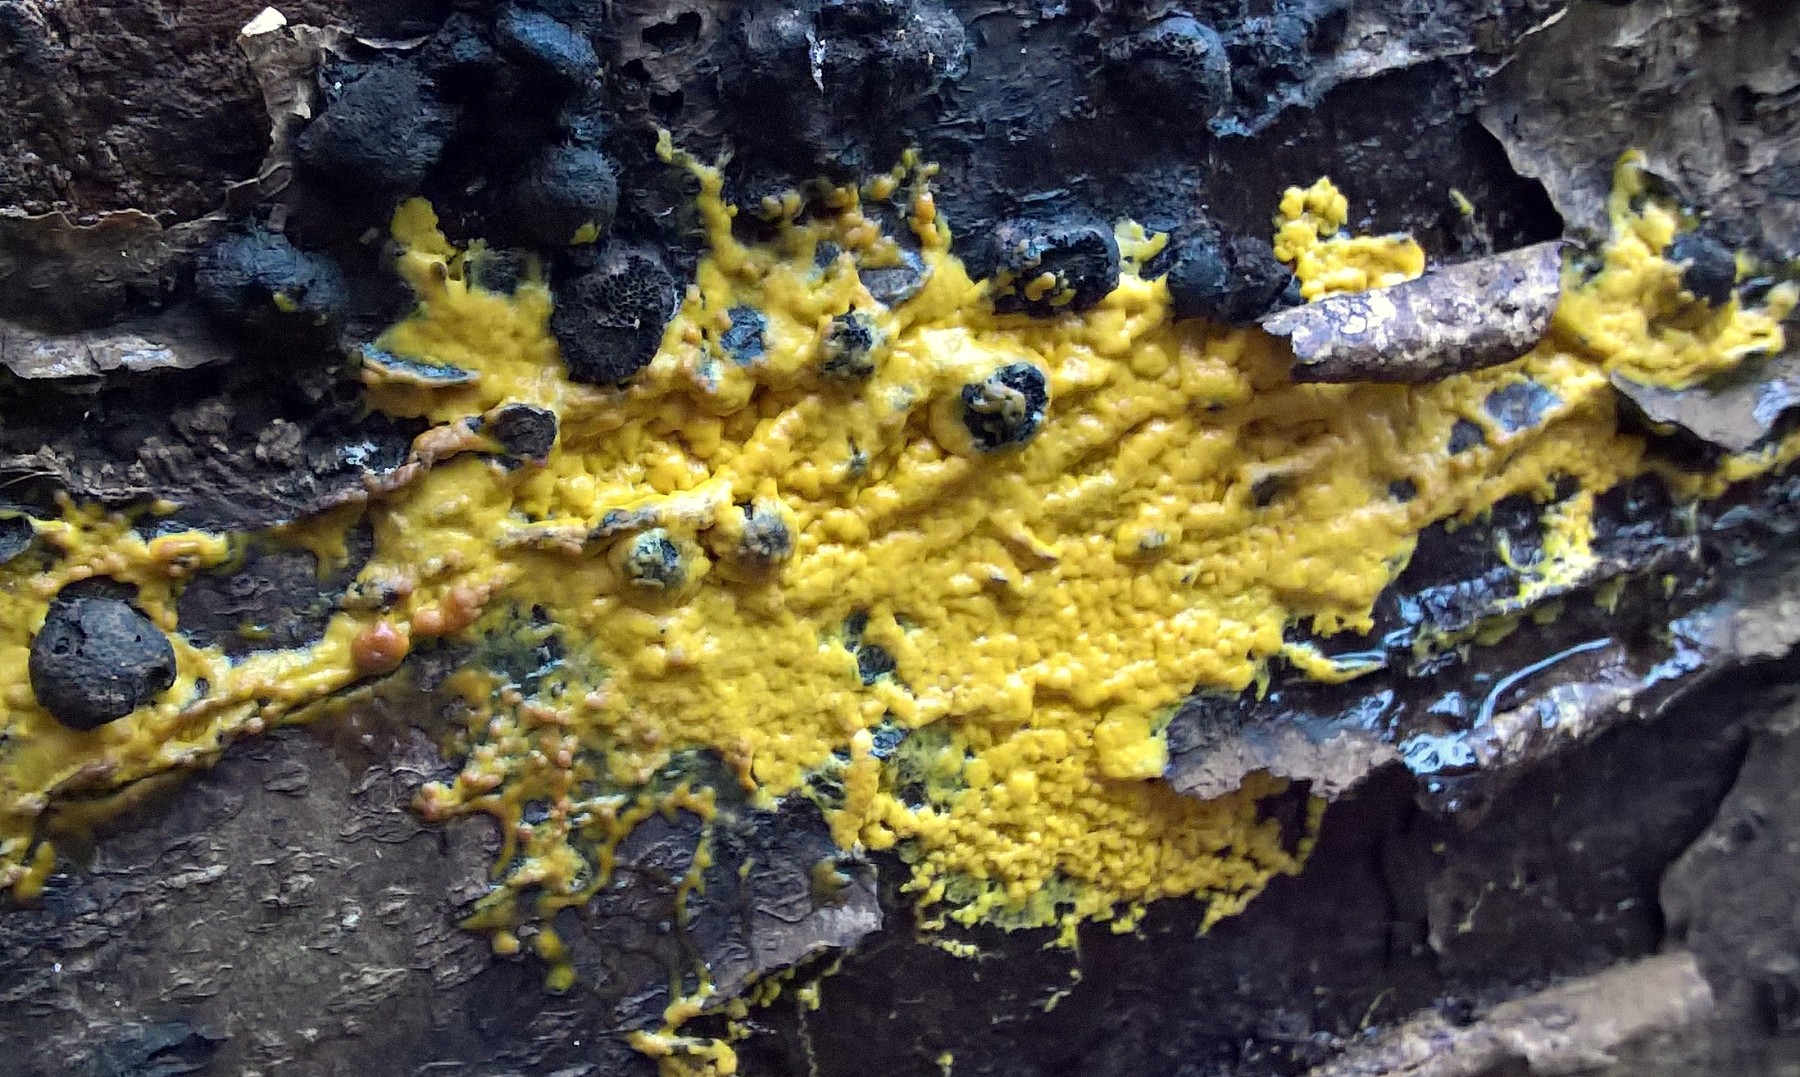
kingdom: Protozoa
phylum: Mycetozoa
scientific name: Mycetozoa
